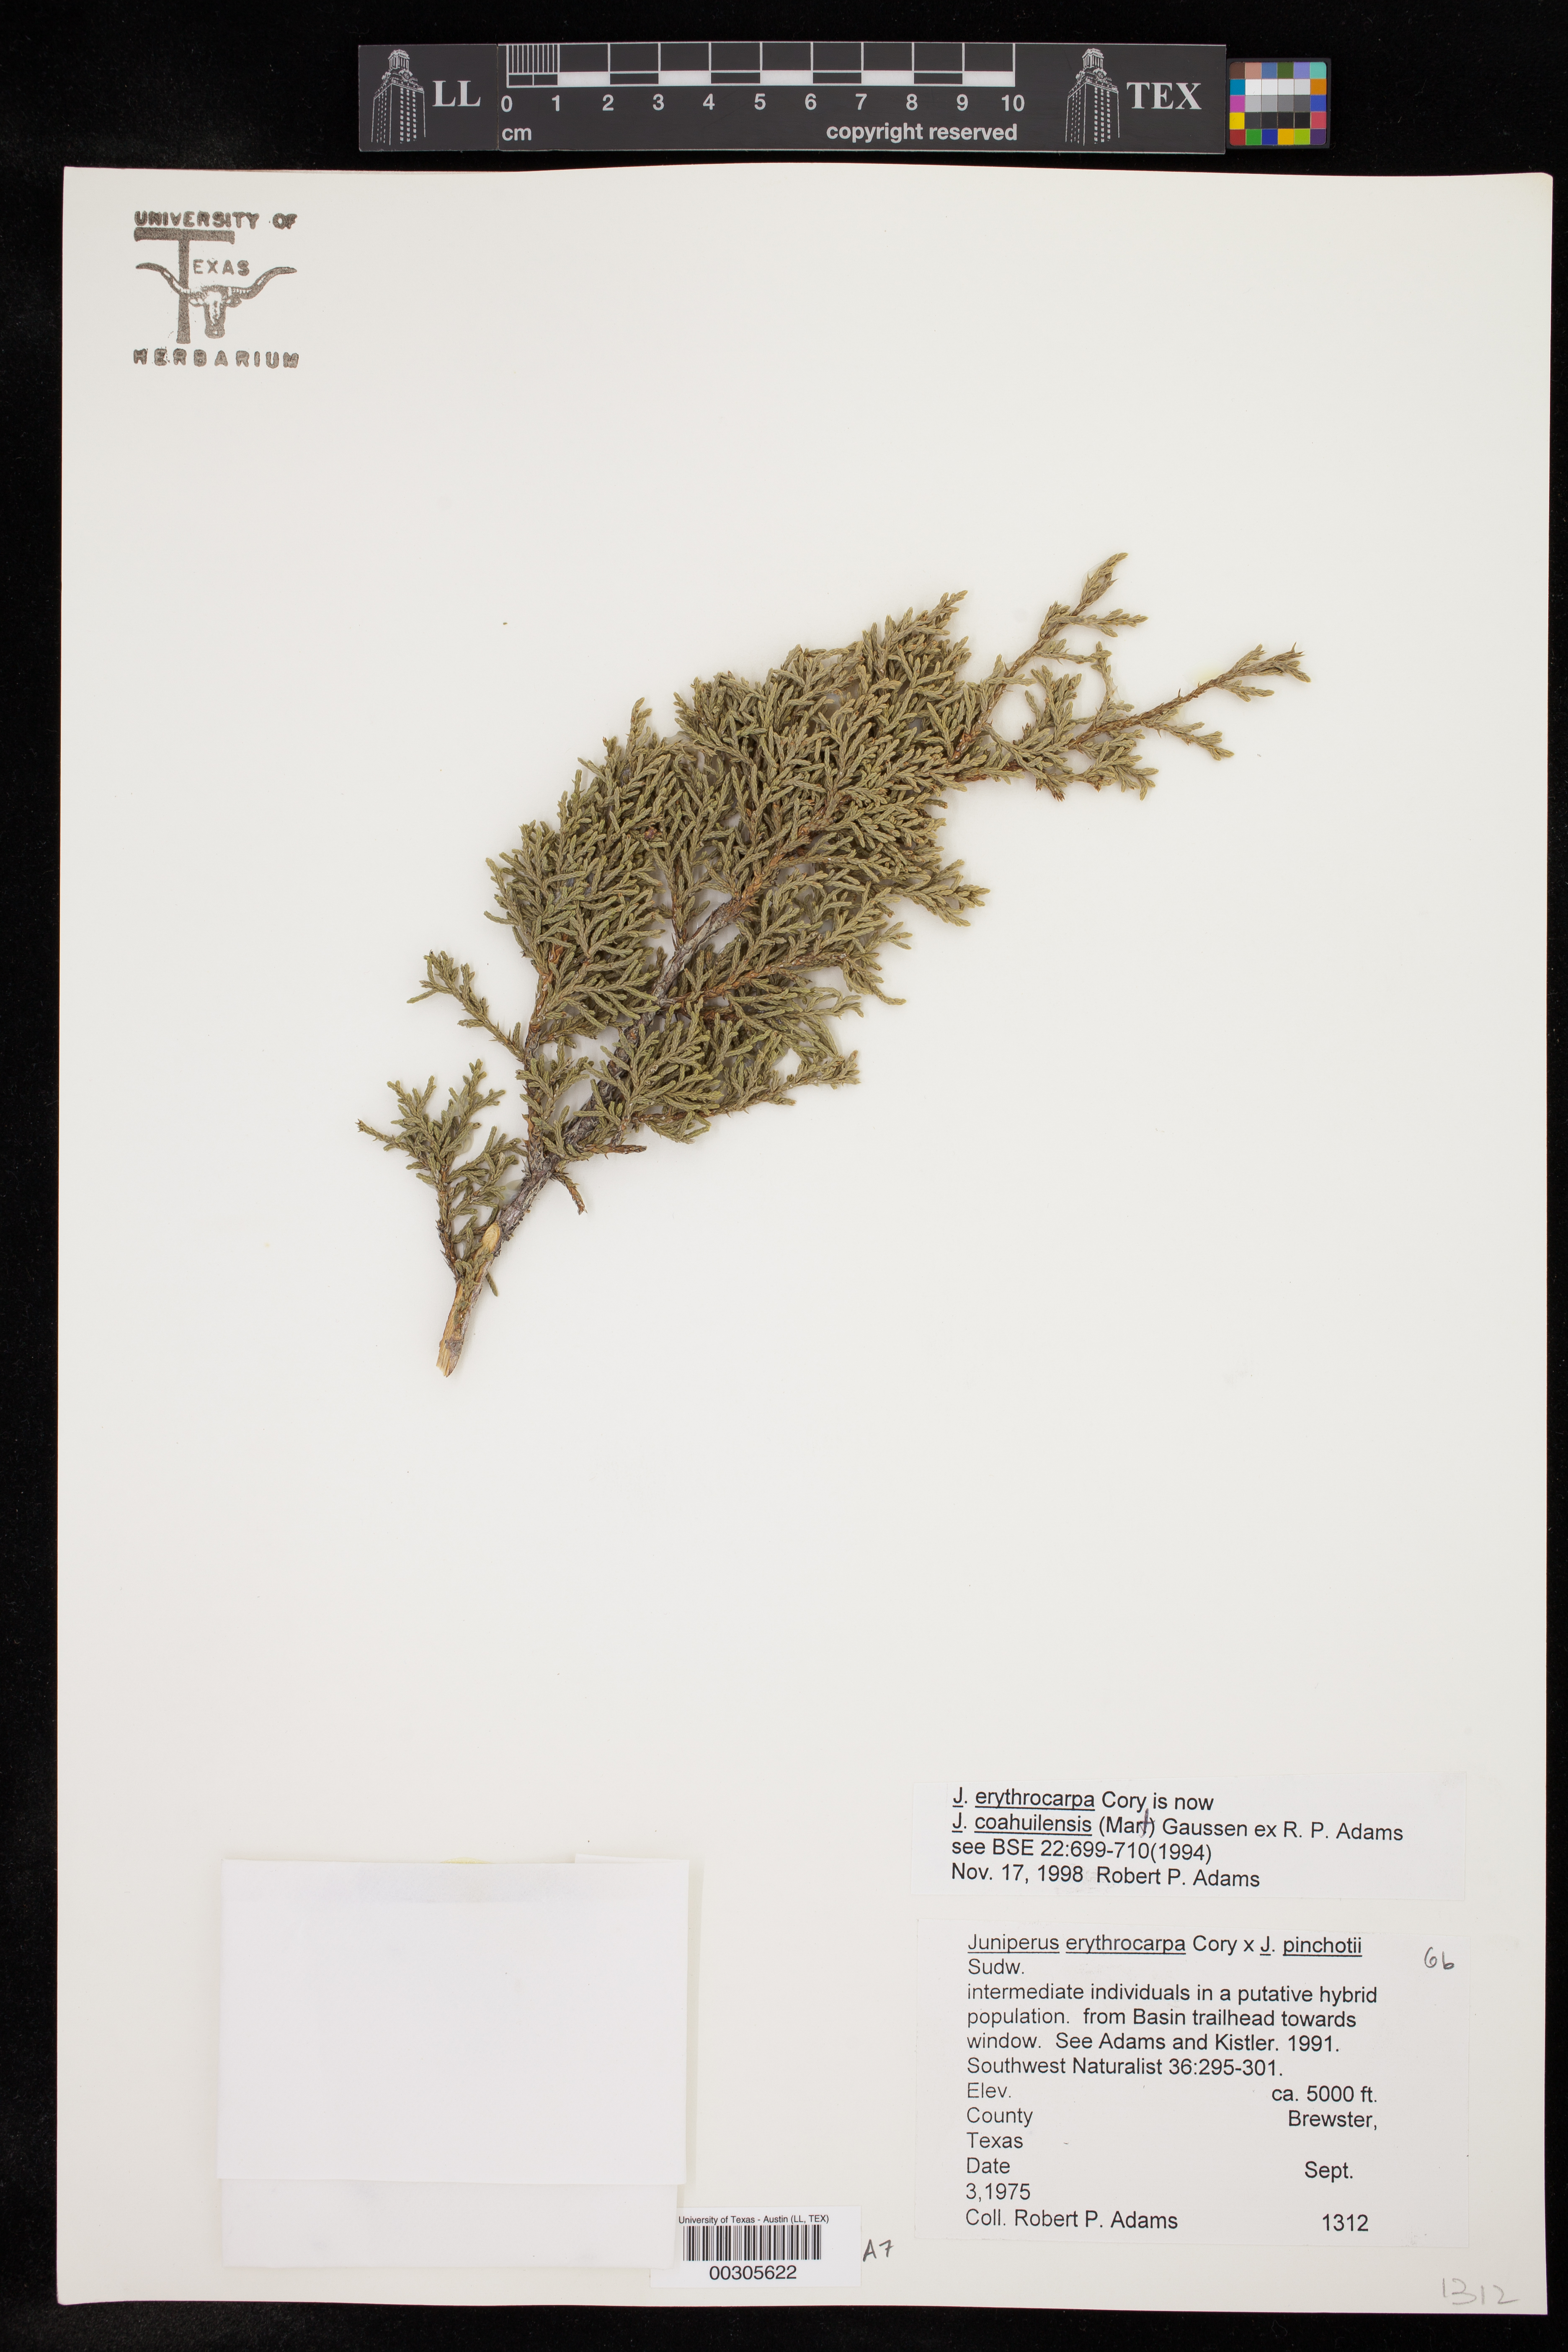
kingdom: Plantae
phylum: Tracheophyta
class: Pinopsida
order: Pinales
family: Cupressaceae
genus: Juniperus
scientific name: Juniperus coahuilensis
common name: Roseberry
